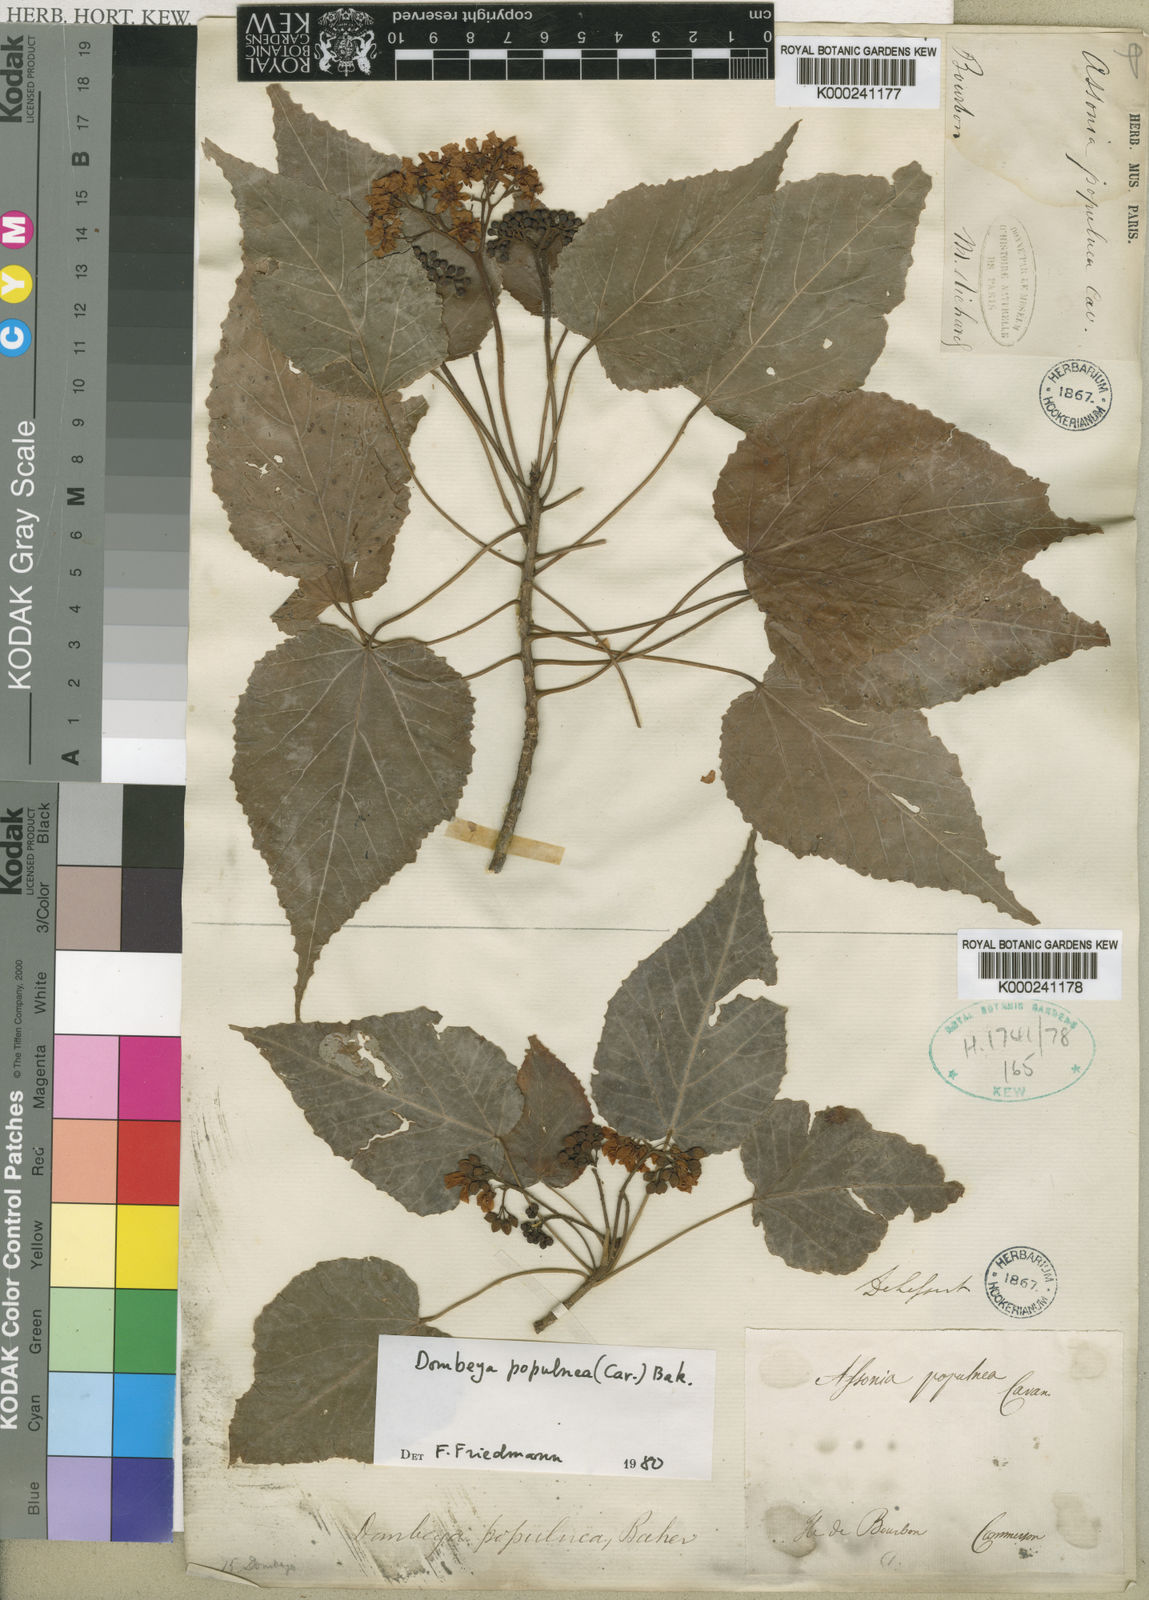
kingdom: Plantae
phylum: Tracheophyta
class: Magnoliopsida
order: Malvales
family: Malvaceae
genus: Ruizia
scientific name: Ruizia populnea
